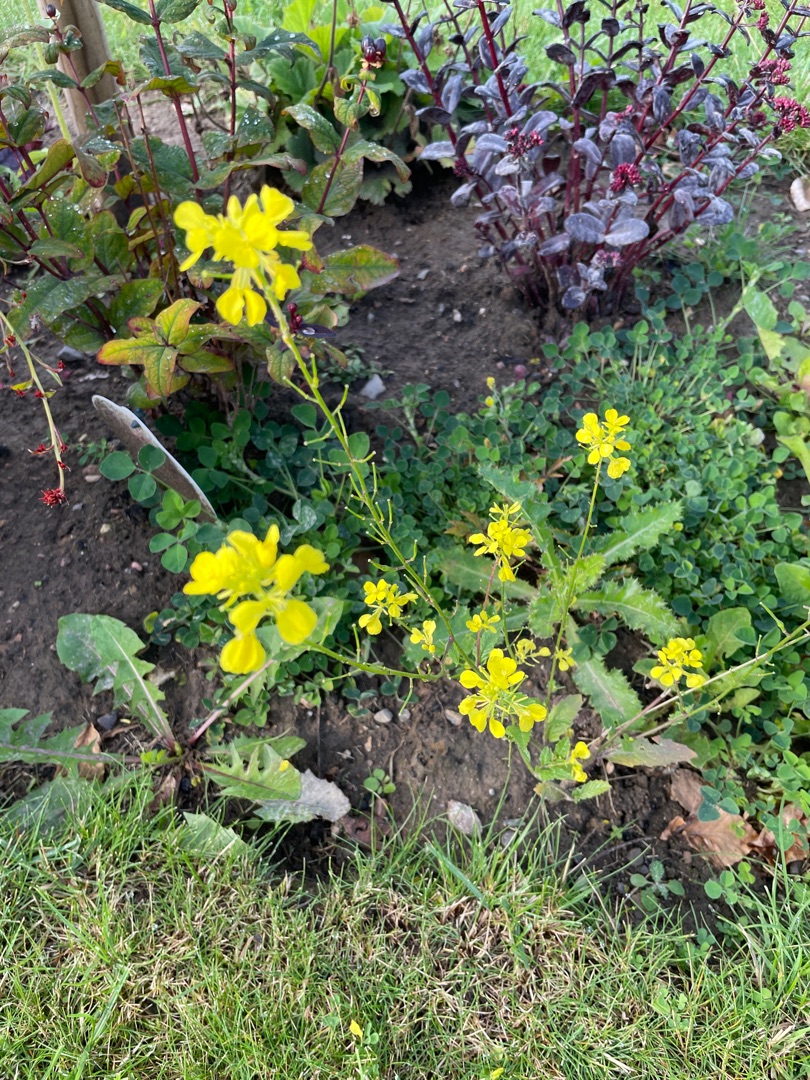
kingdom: Plantae
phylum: Tracheophyta
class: Magnoliopsida
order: Brassicales
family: Brassicaceae
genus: Sinapis
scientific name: Sinapis arvensis
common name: Ager-sennep
